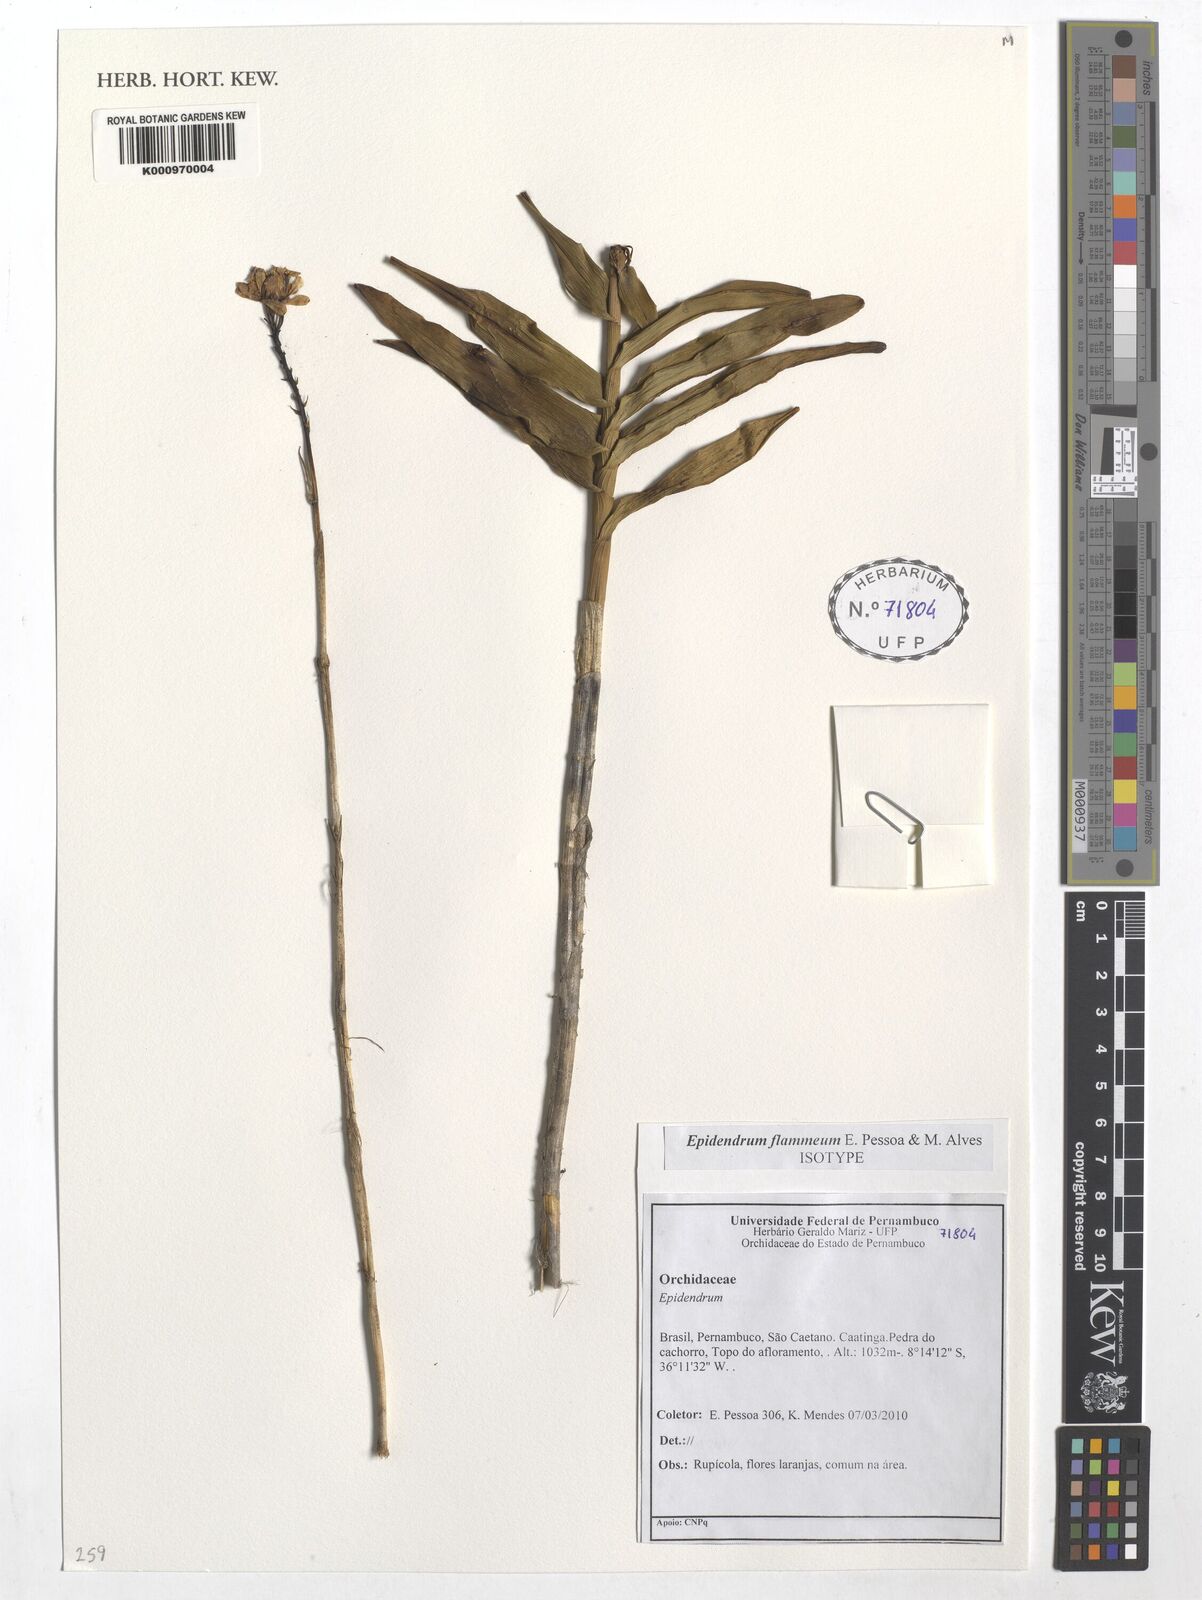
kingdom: Plantae
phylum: Tracheophyta
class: Liliopsida
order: Asparagales
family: Orchidaceae
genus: Epidendrum
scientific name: Epidendrum flammeum
